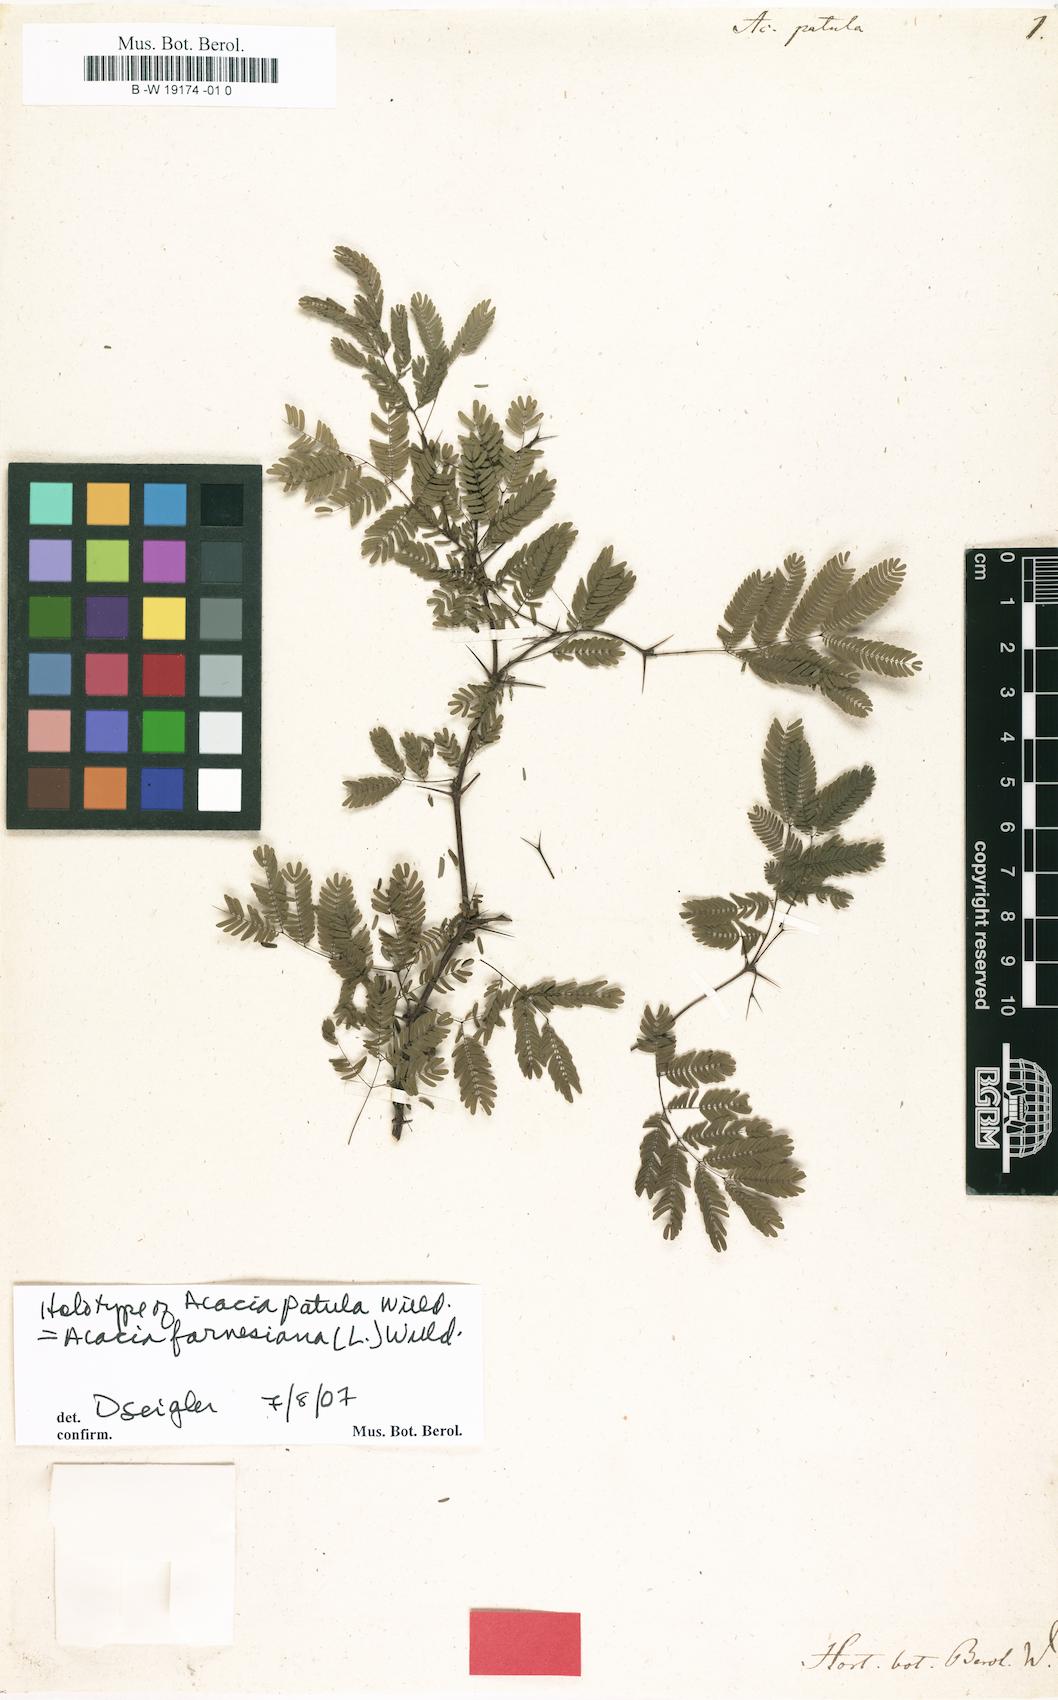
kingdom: Plantae
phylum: Tracheophyta
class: Magnoliopsida
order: Fabales
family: Fabaceae
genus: Acacia
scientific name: Acacia patula
